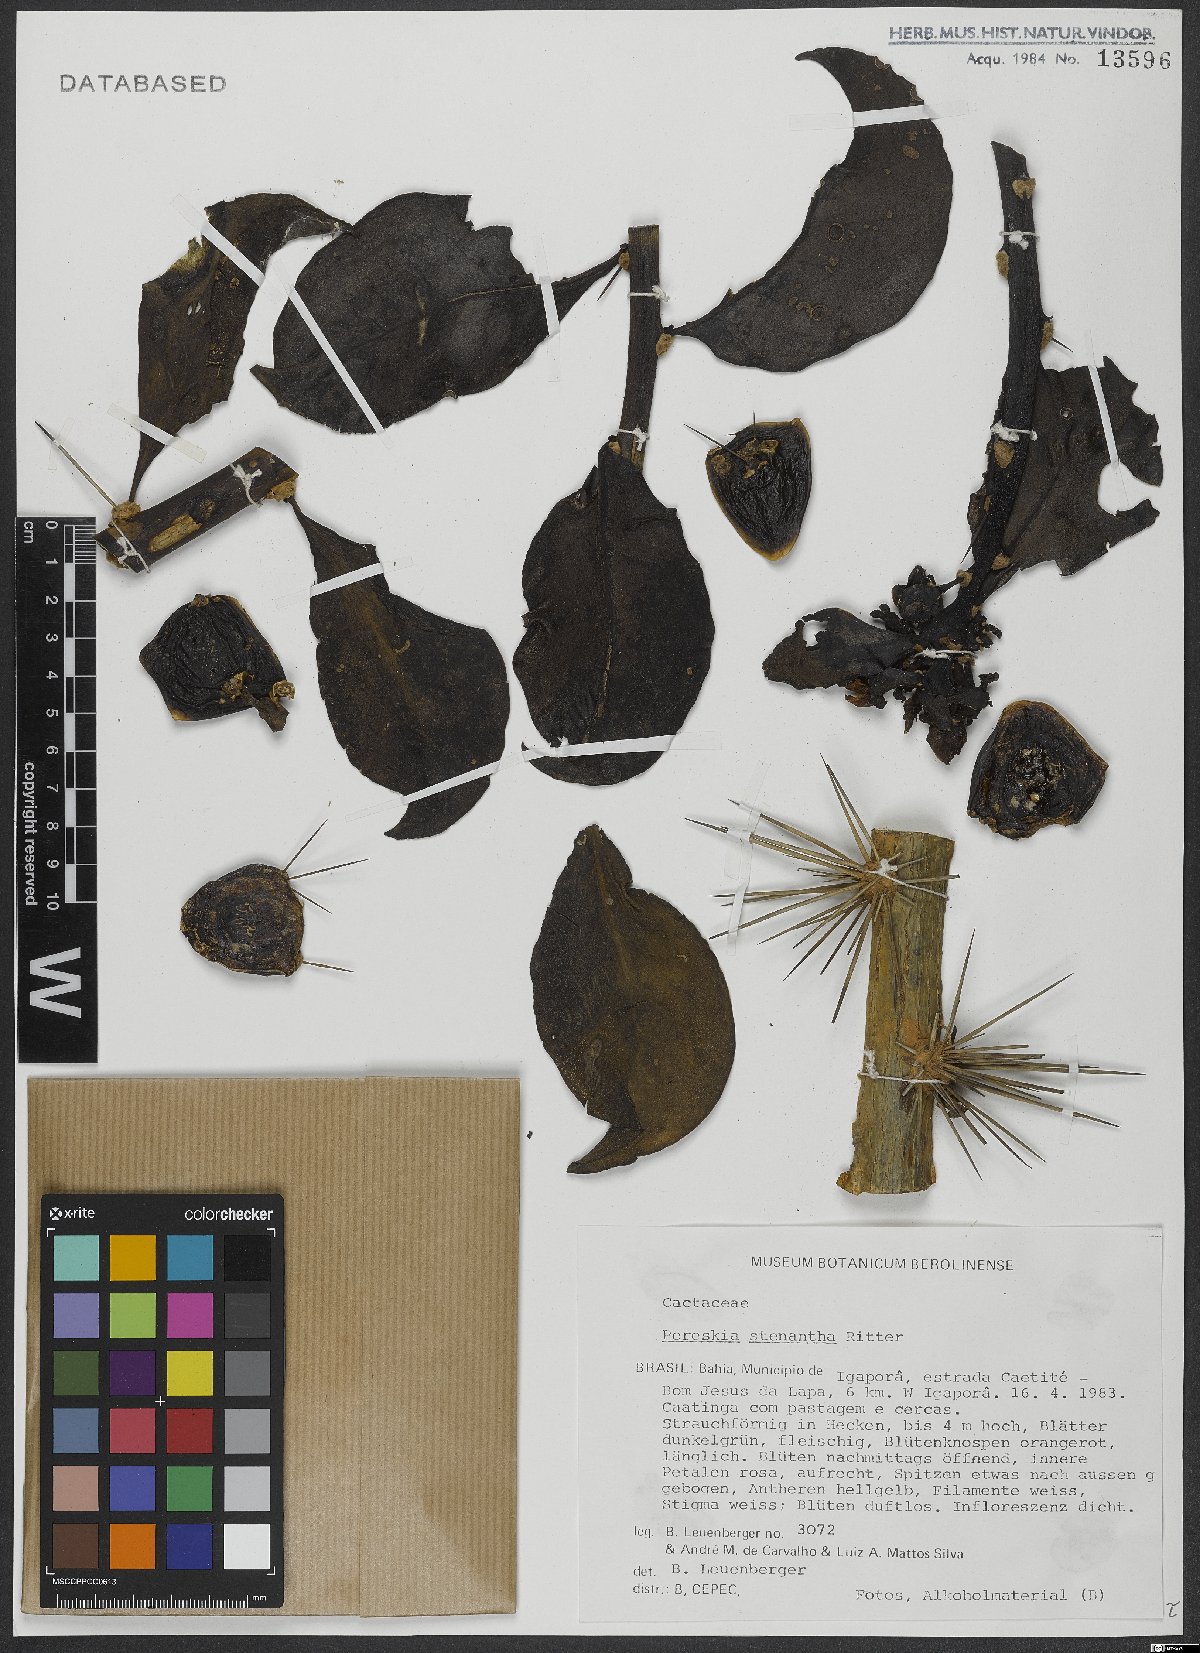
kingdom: Plantae
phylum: Tracheophyta
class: Magnoliopsida
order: Caryophyllales
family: Cactaceae
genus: Pereskia
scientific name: Pereskia stenantha
